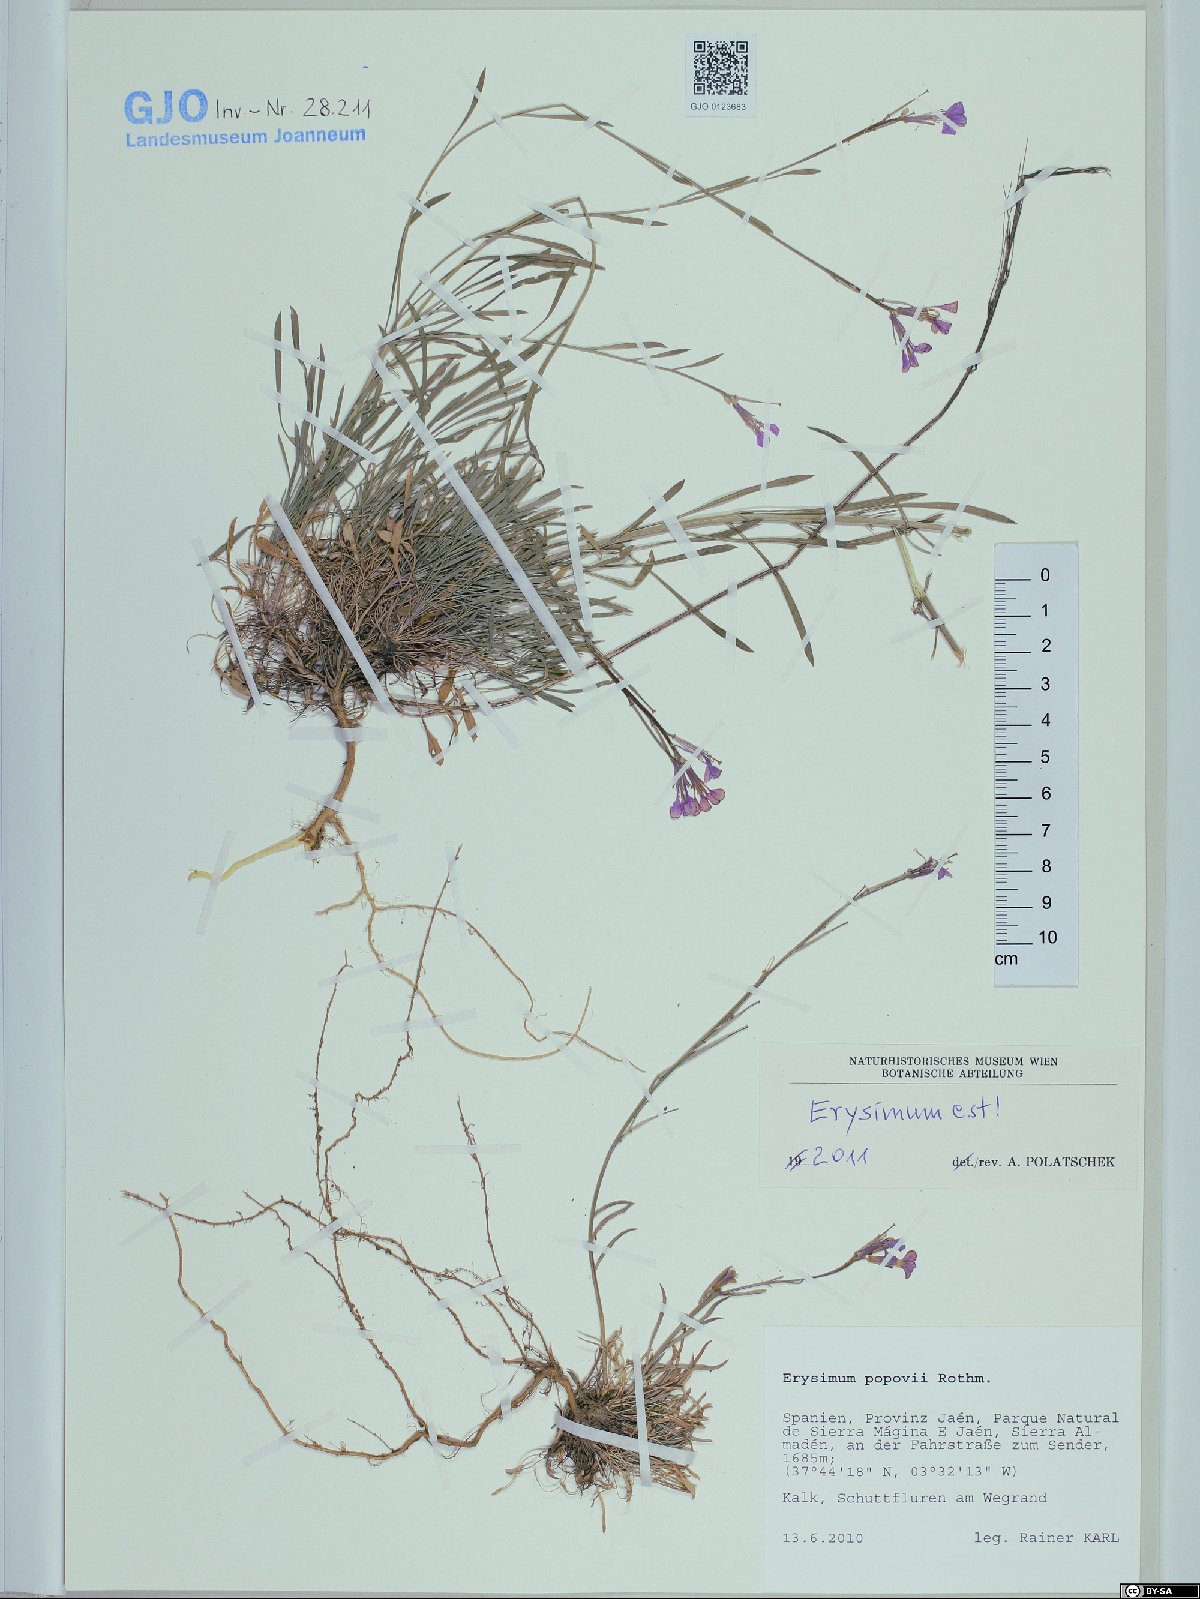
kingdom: Plantae
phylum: Tracheophyta
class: Magnoliopsida
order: Brassicales
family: Brassicaceae
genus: Erysimum
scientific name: Erysimum popovii
